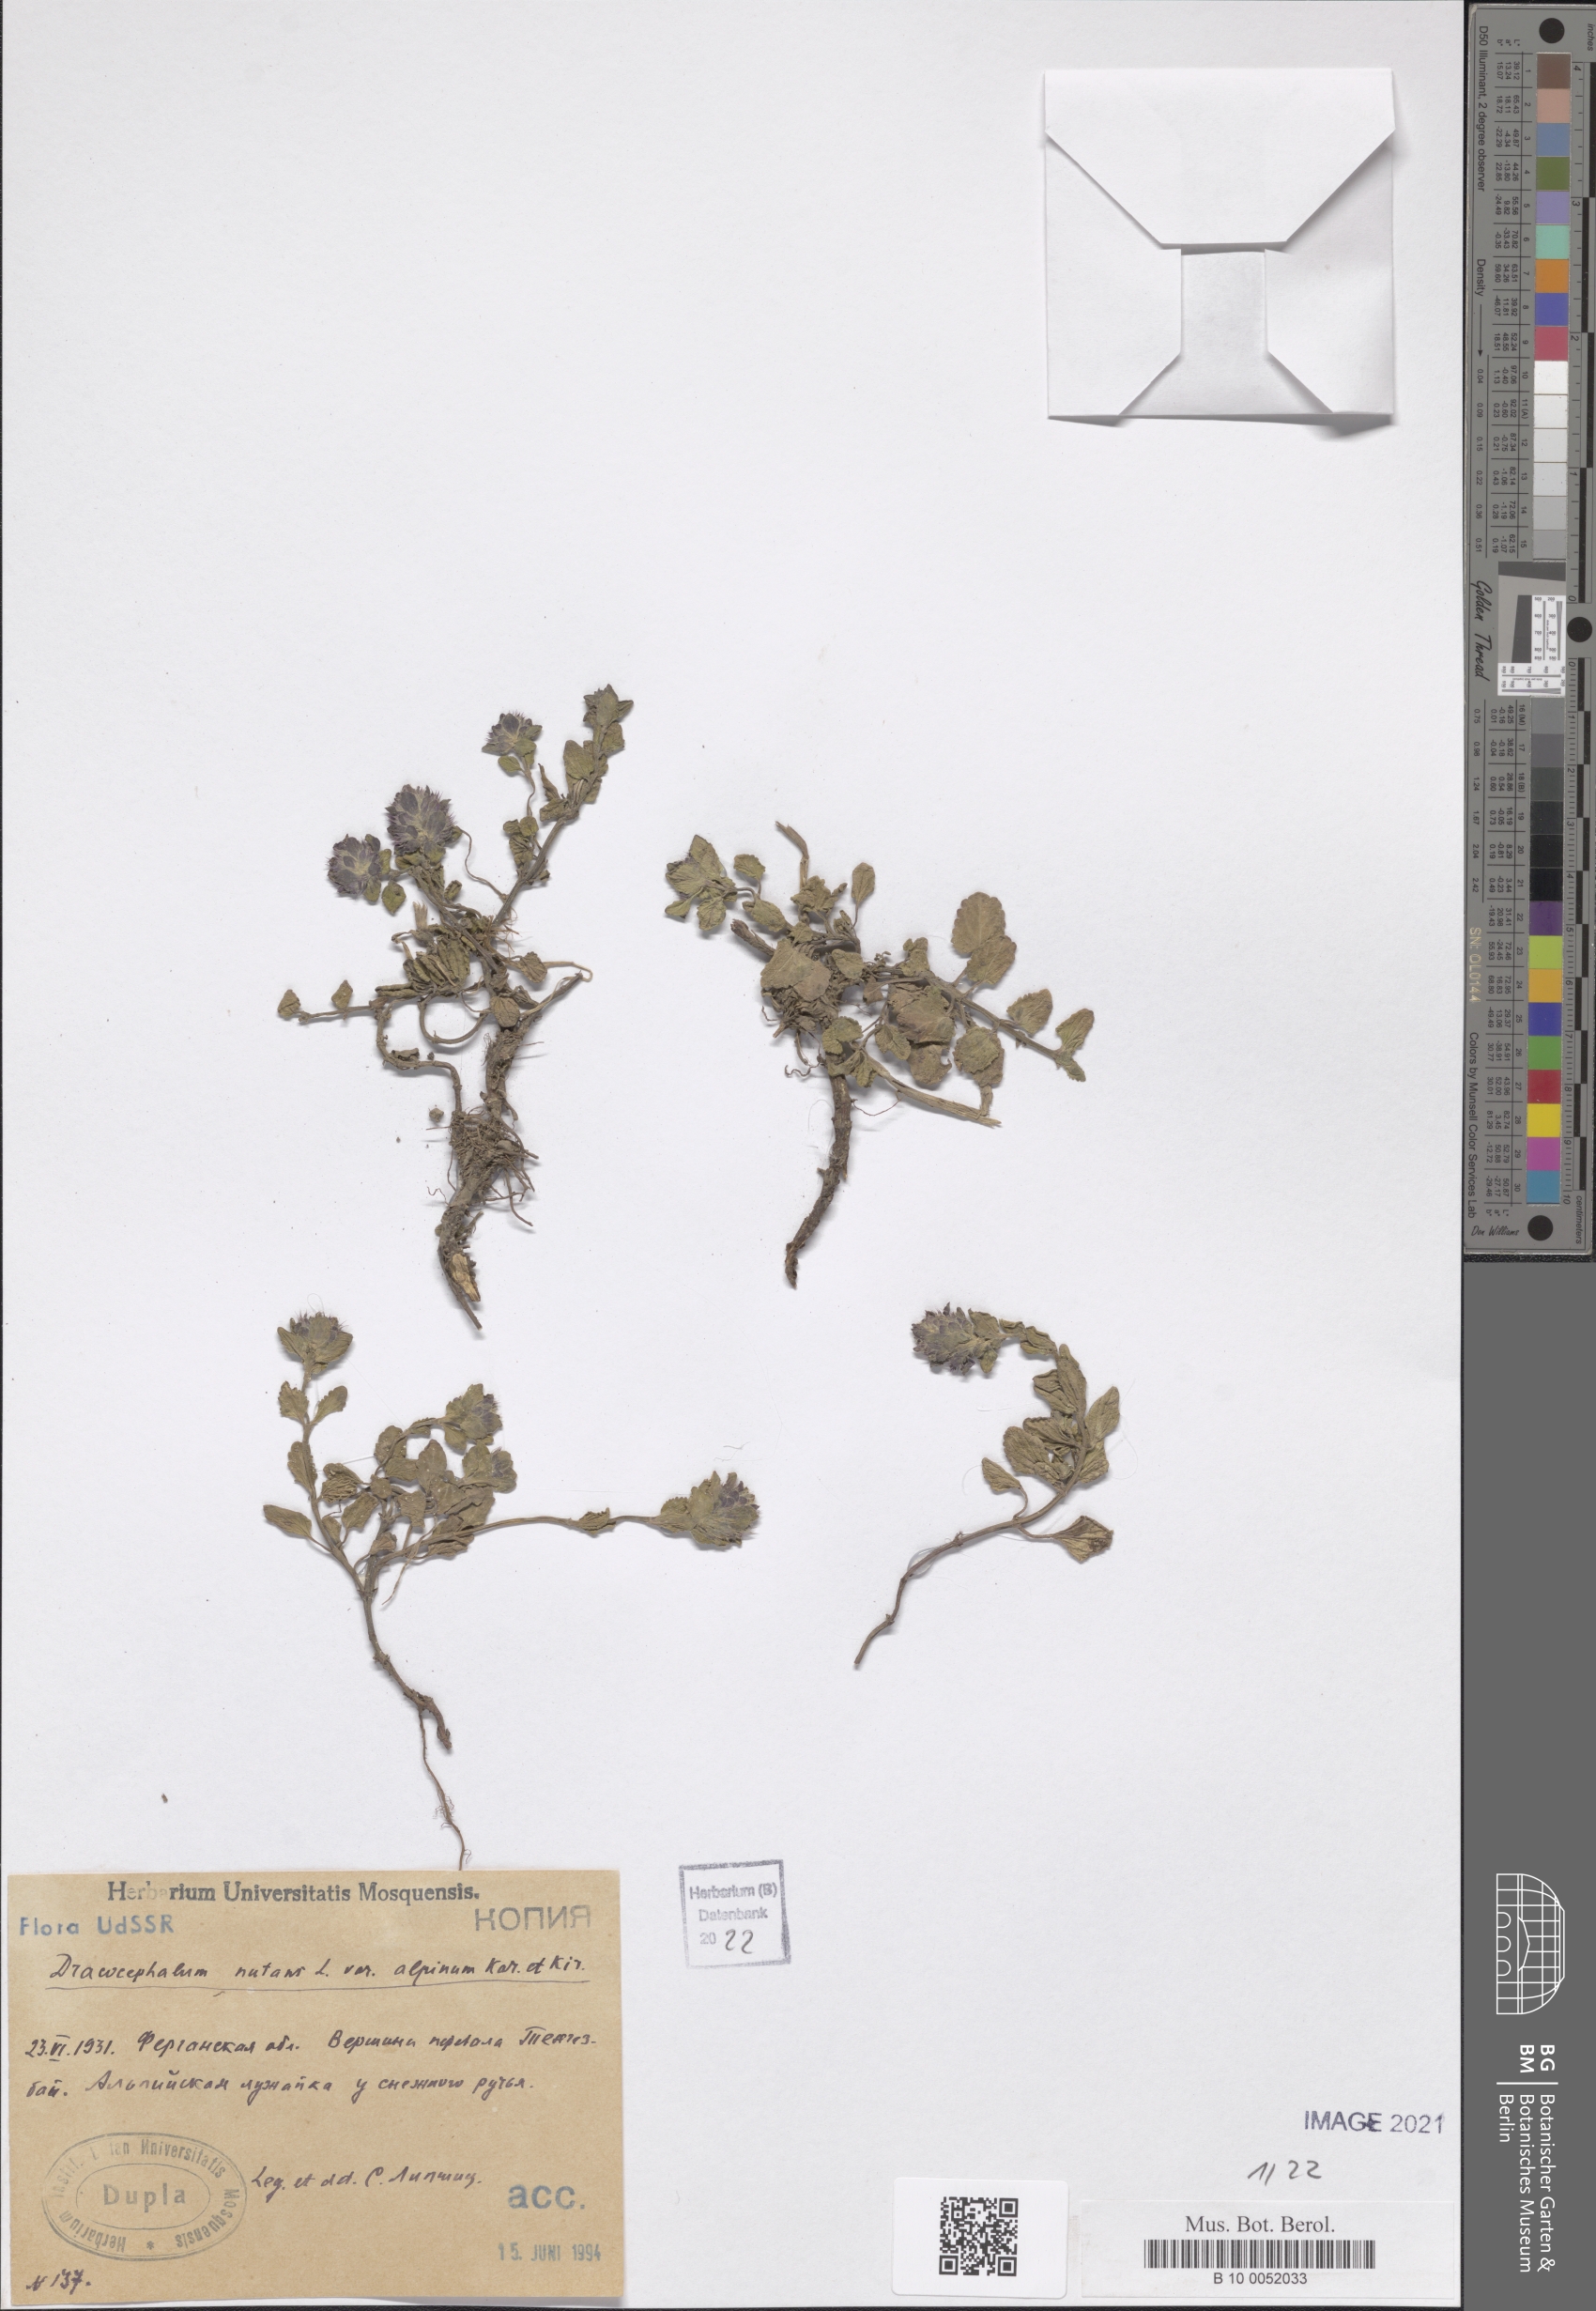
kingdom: Plantae
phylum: Tracheophyta
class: Magnoliopsida
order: Lamiales
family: Lamiaceae
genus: Dracocephalum
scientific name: Dracocephalum nutans
